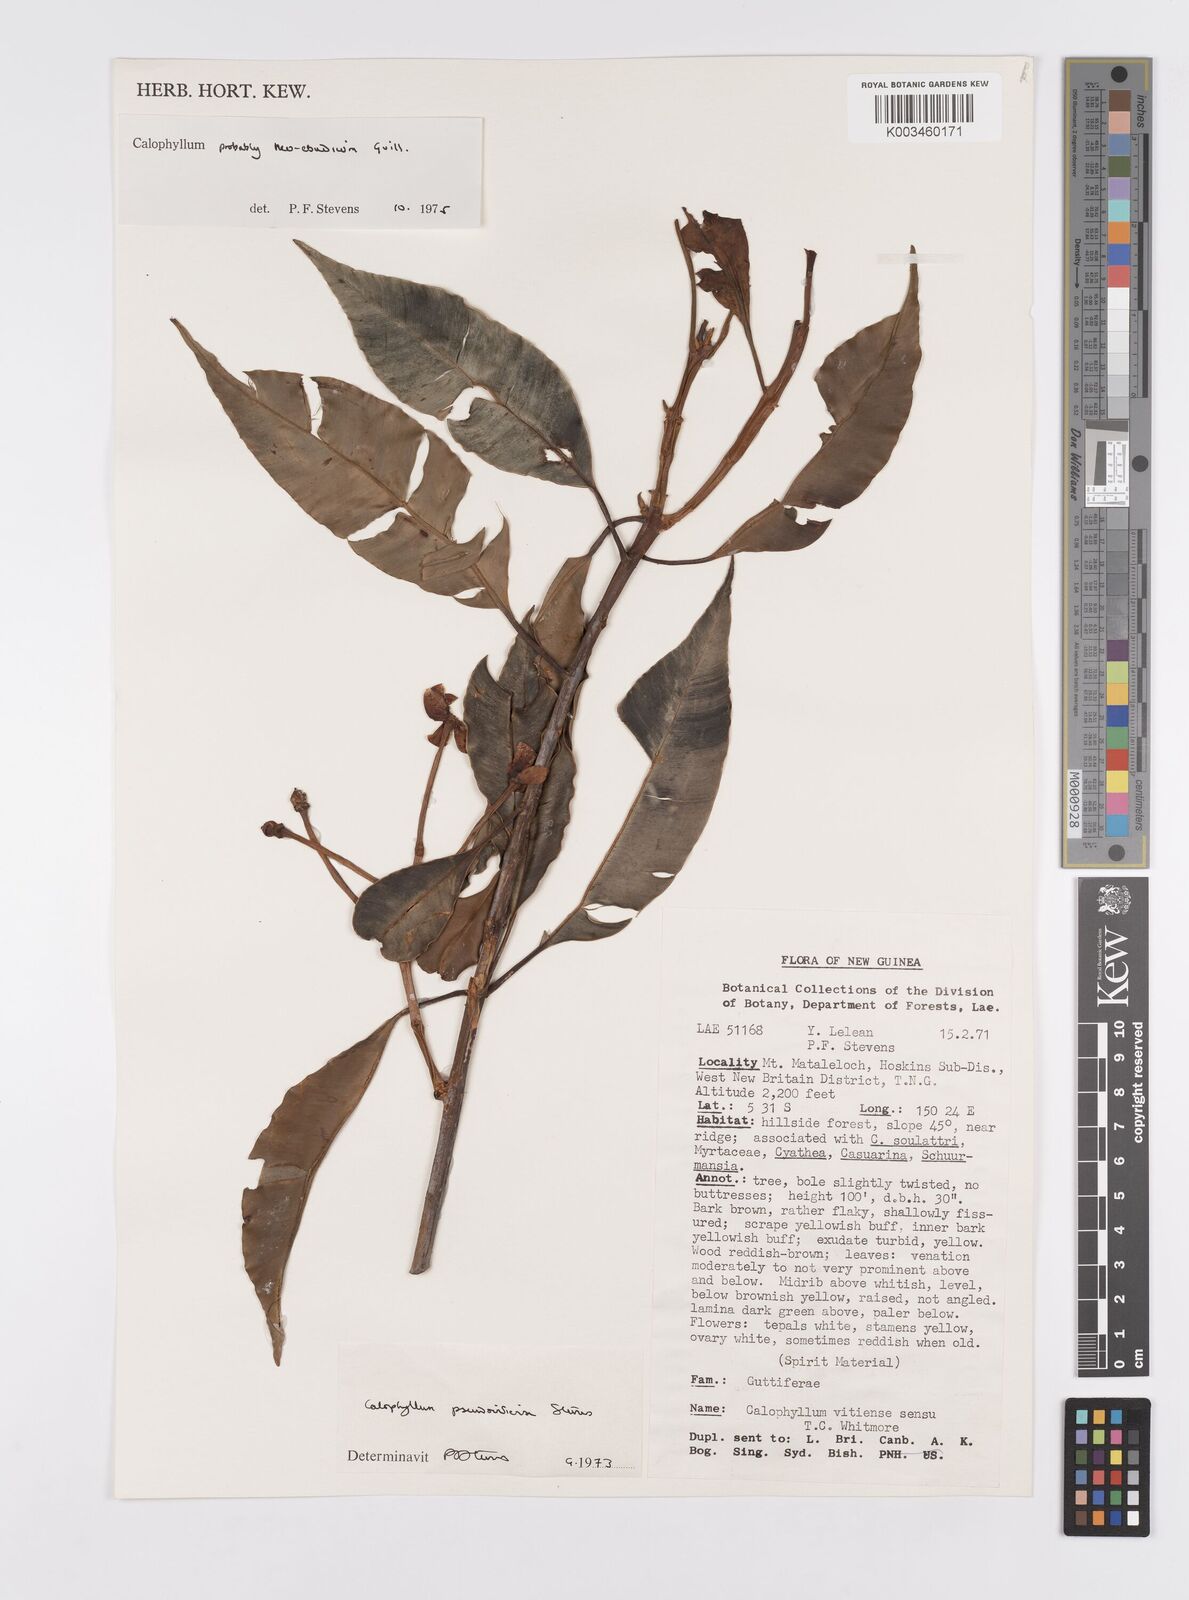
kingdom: Plantae
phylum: Tracheophyta
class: Magnoliopsida
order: Malpighiales
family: Calophyllaceae
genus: Calophyllum
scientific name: Calophyllum neoebudicum
